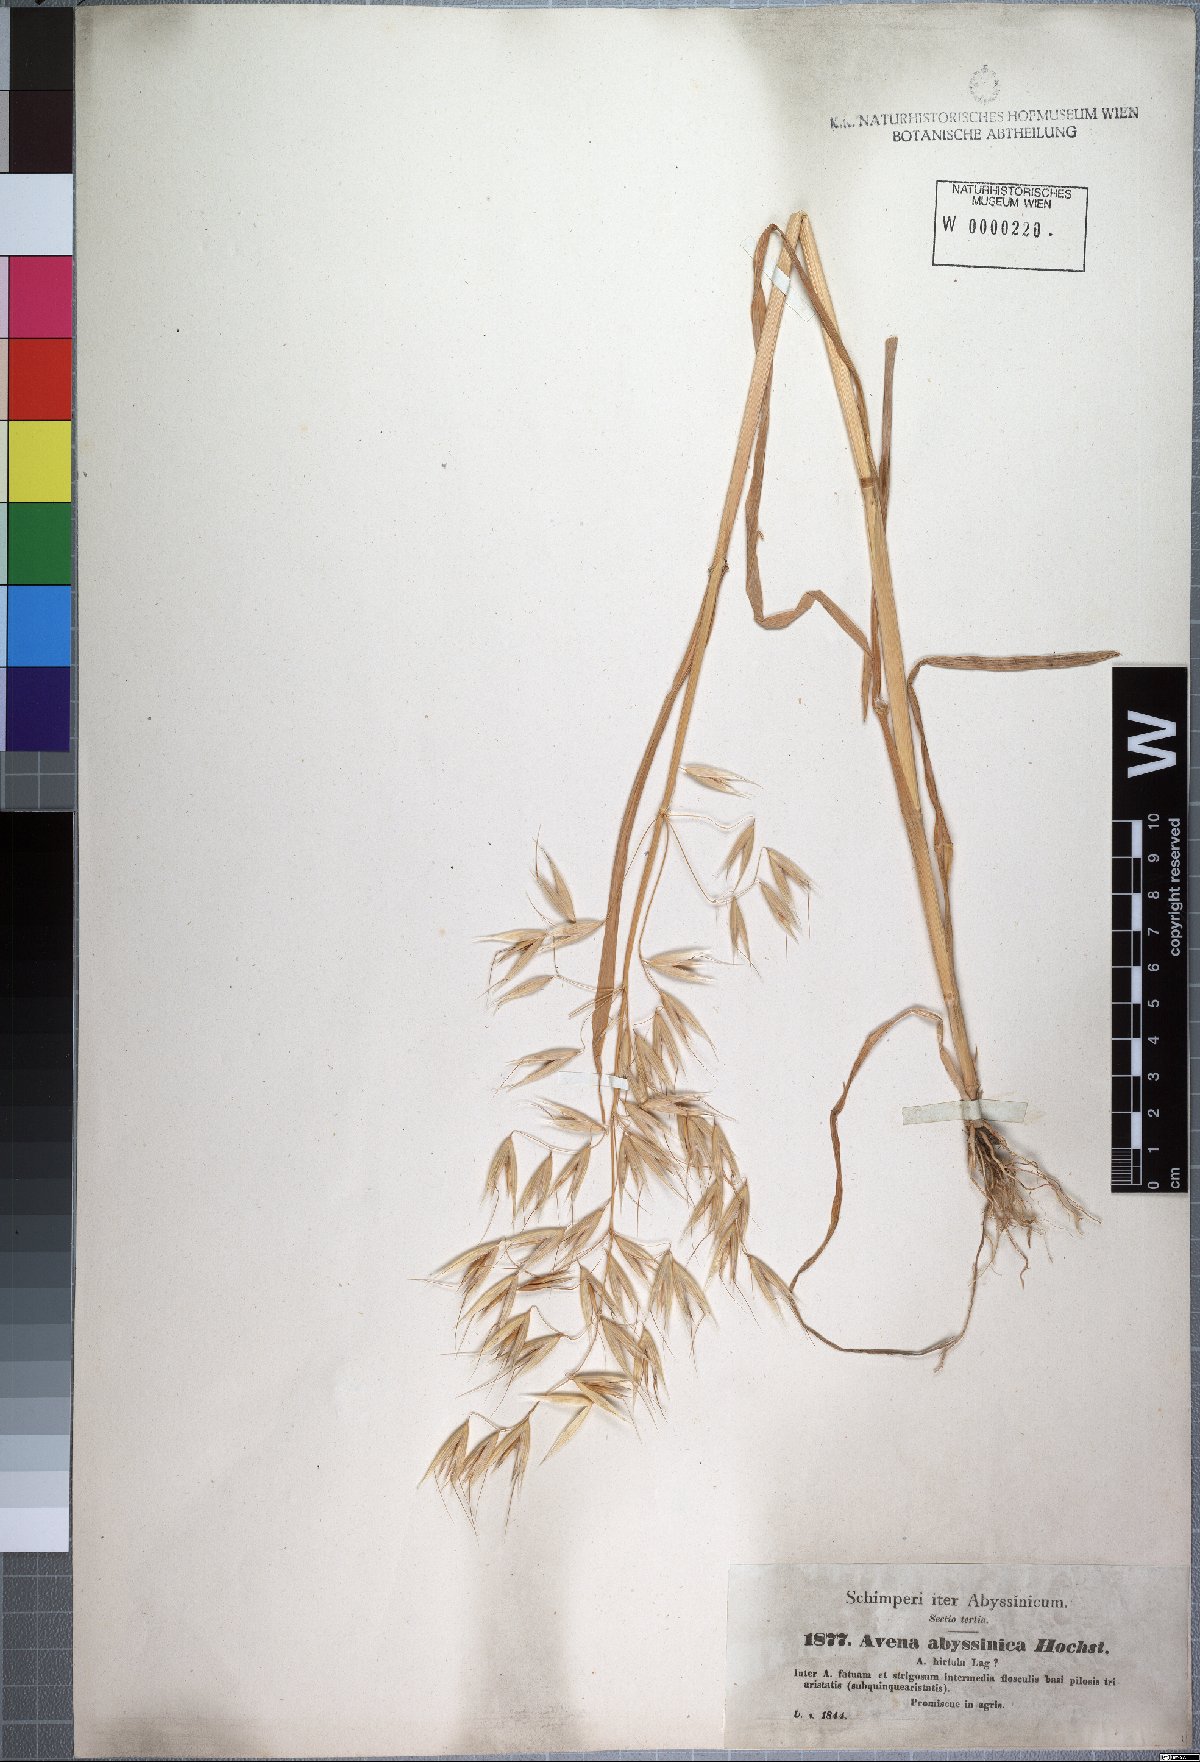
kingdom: Plantae
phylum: Tracheophyta
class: Liliopsida
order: Poales
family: Poaceae
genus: Avena
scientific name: Avena abyssinica
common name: Ethiopian oat
